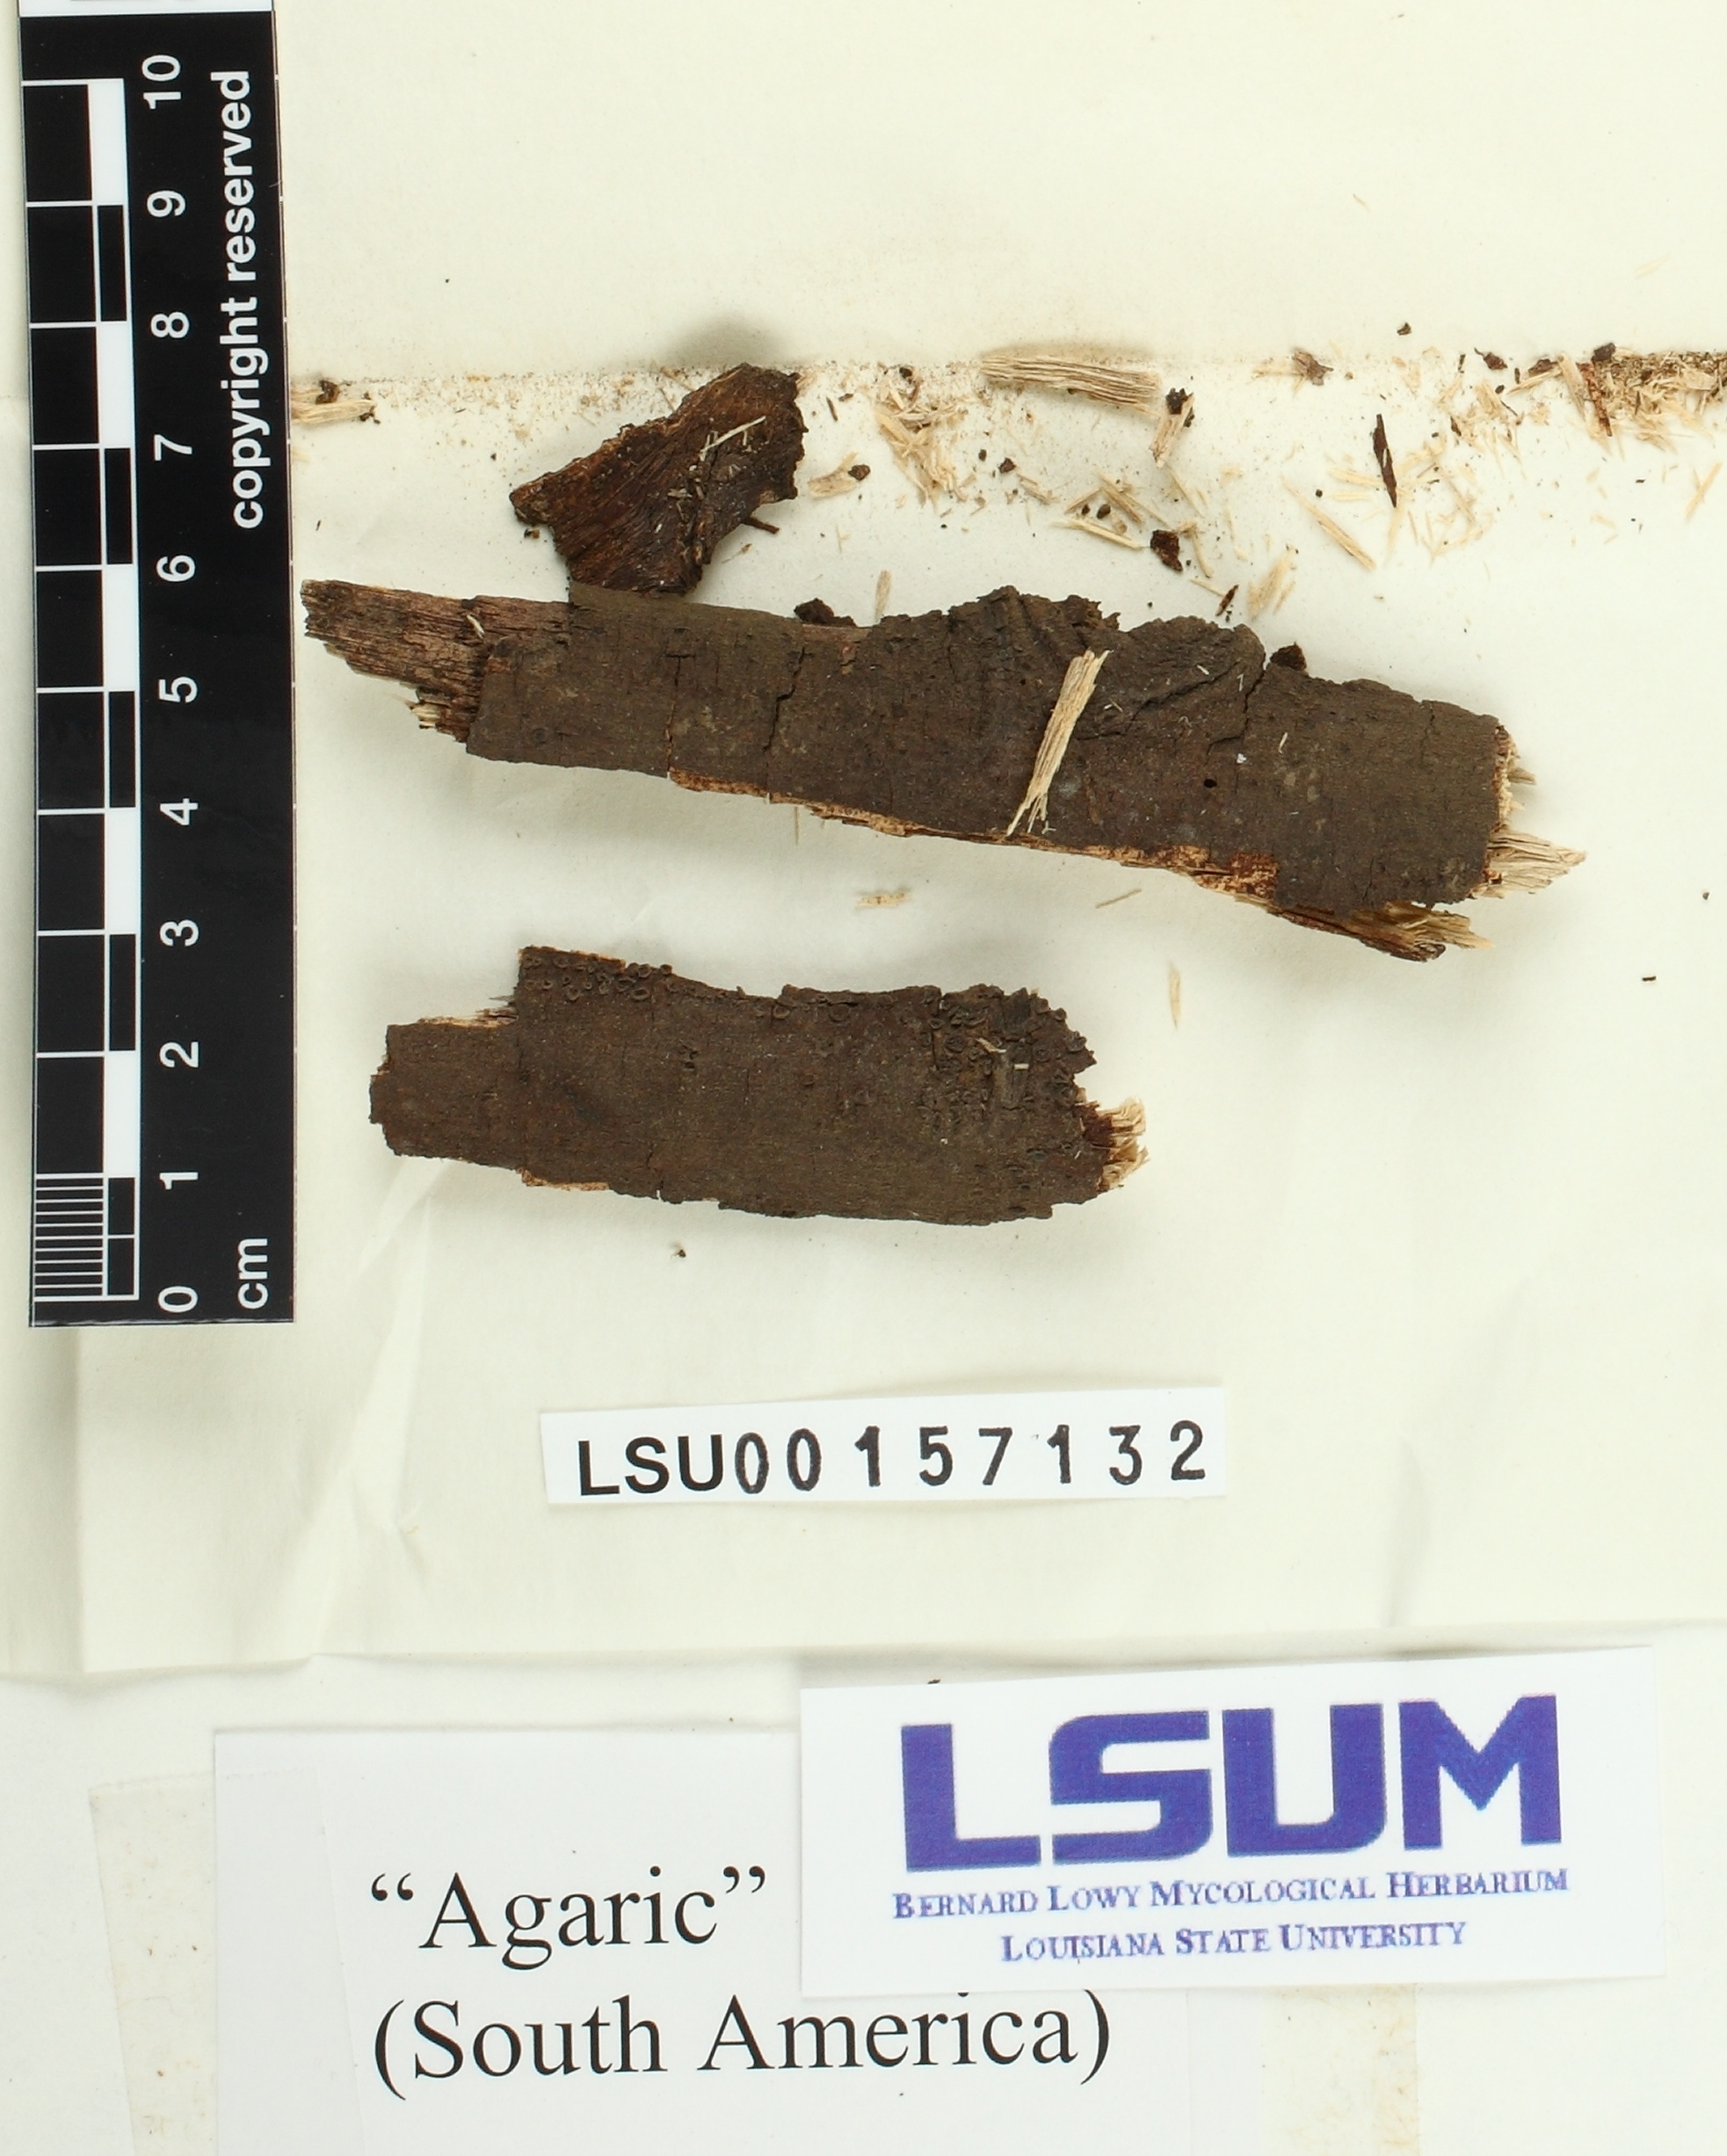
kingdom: Fungi
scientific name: Fungi
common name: Fungi
